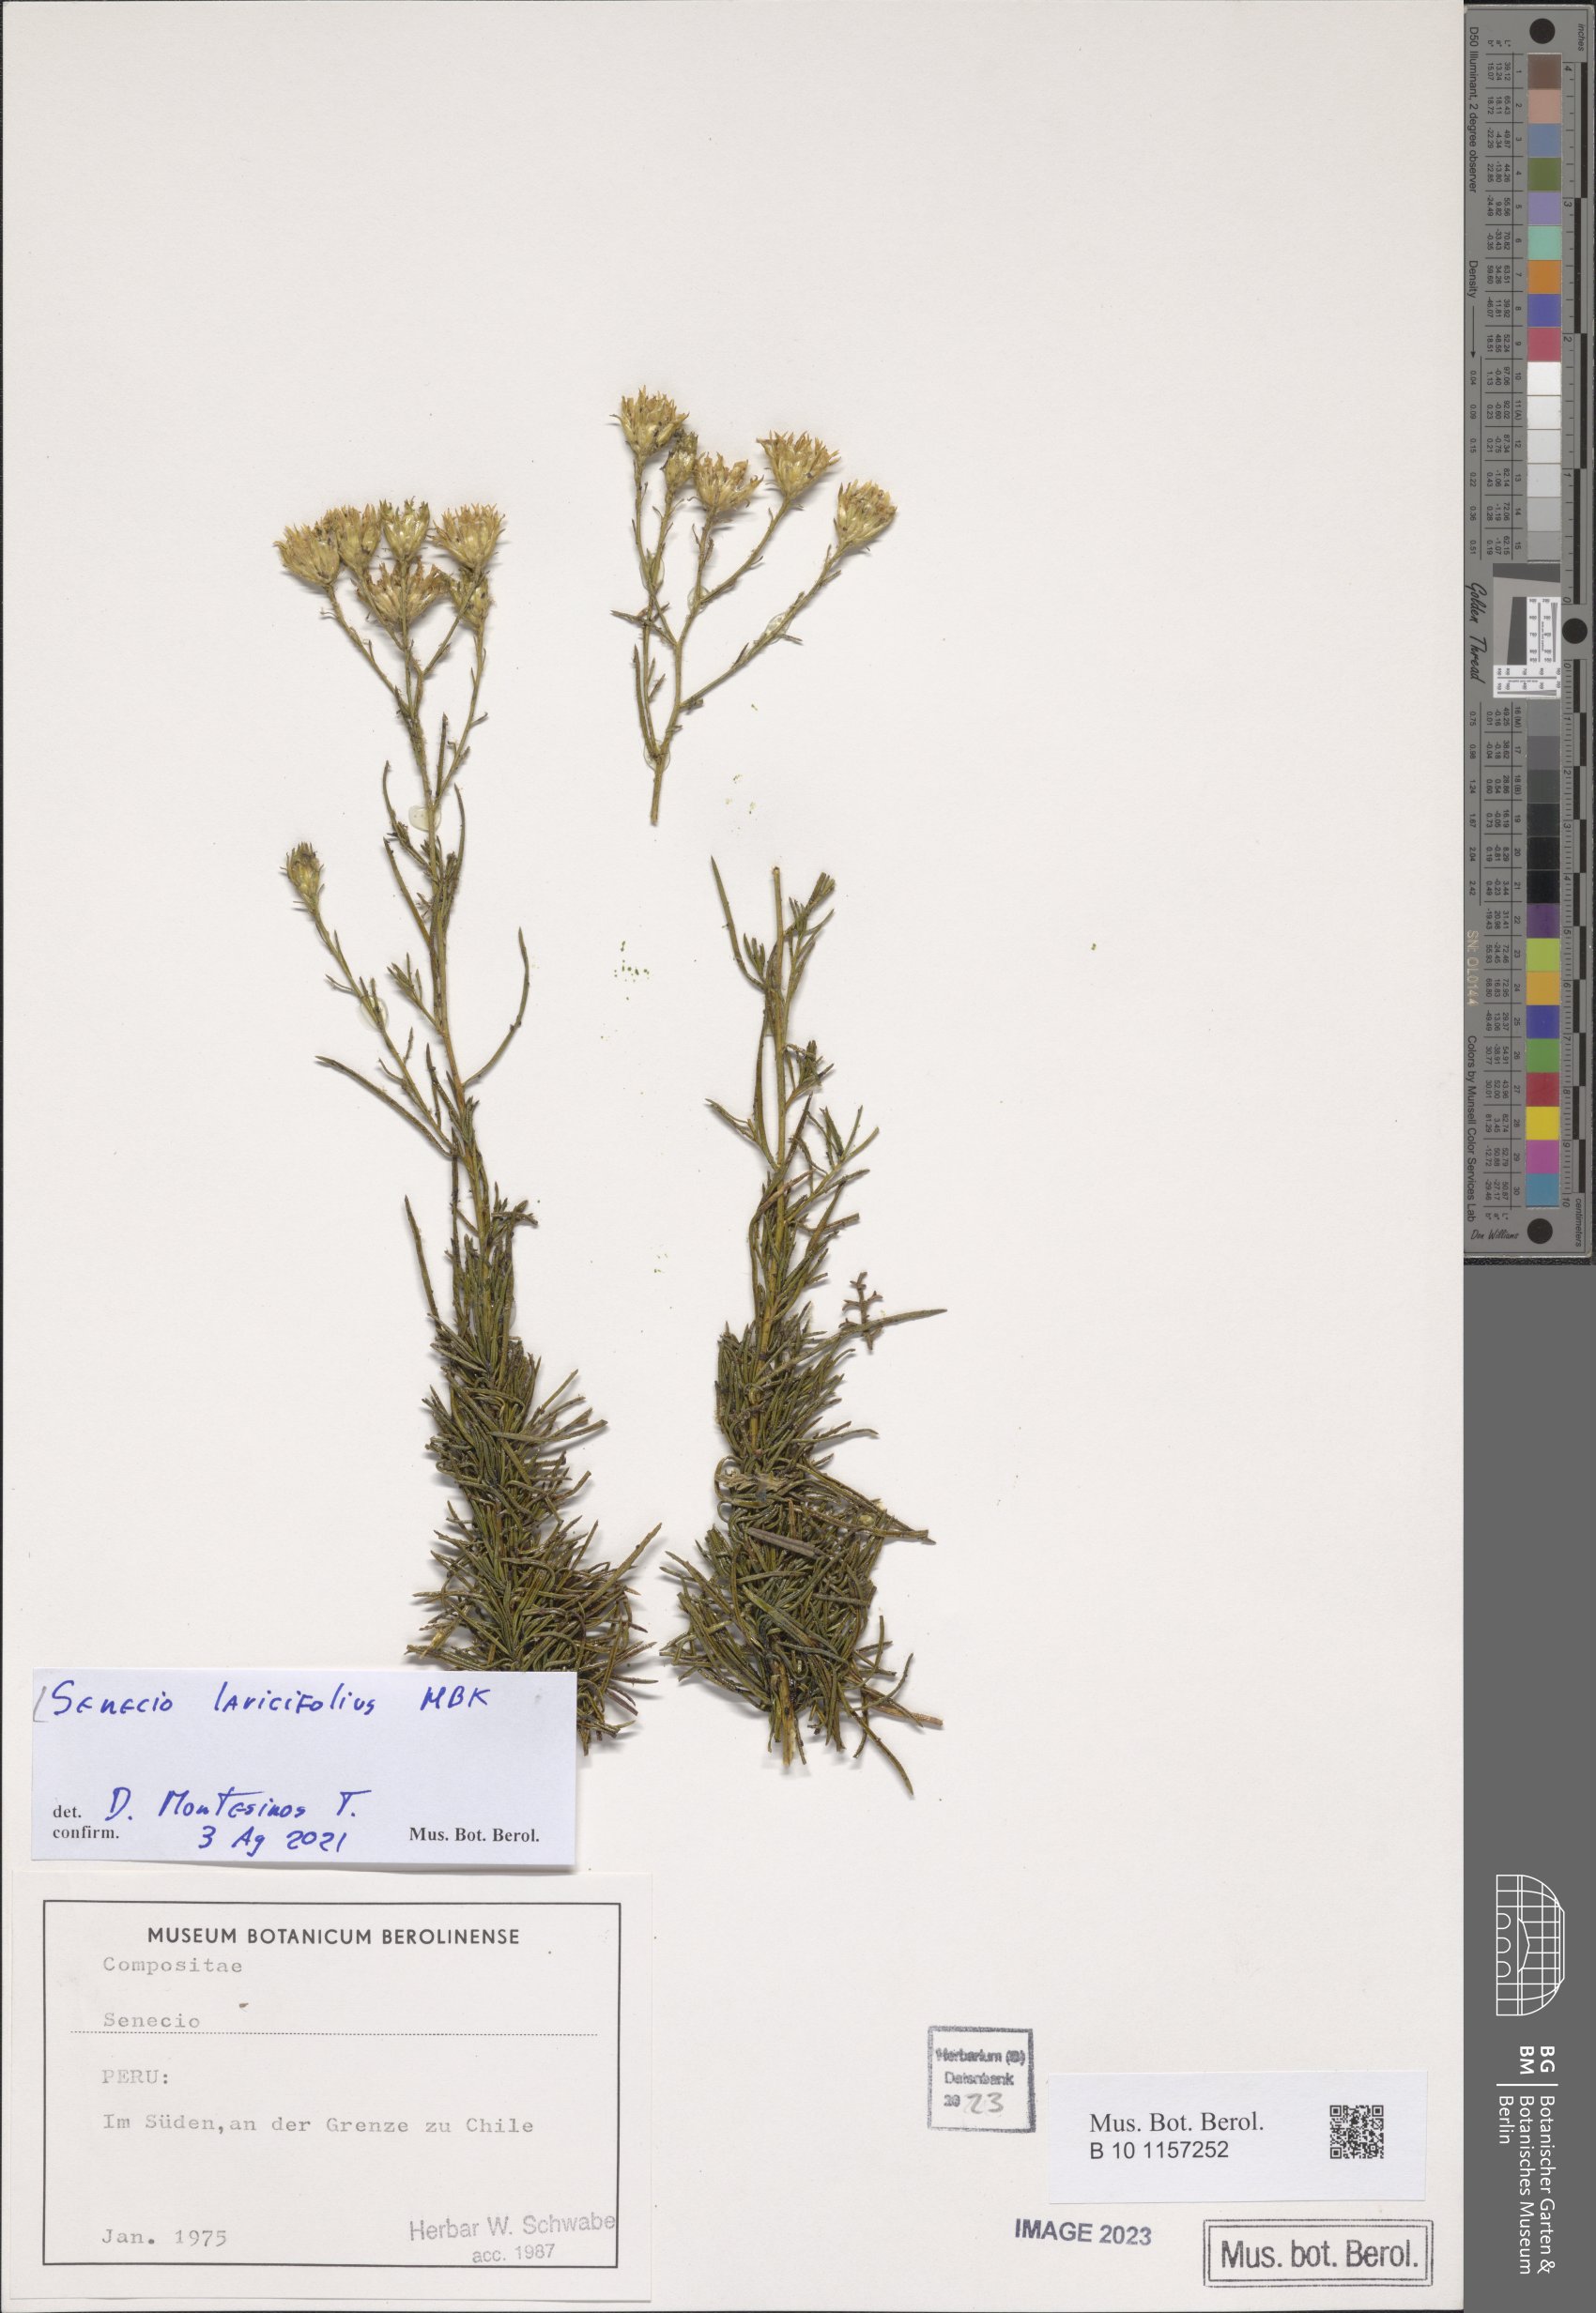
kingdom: Plantae
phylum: Tracheophyta
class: Magnoliopsida
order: Asterales
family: Asteraceae
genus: Senecio
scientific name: Senecio laricifolius
